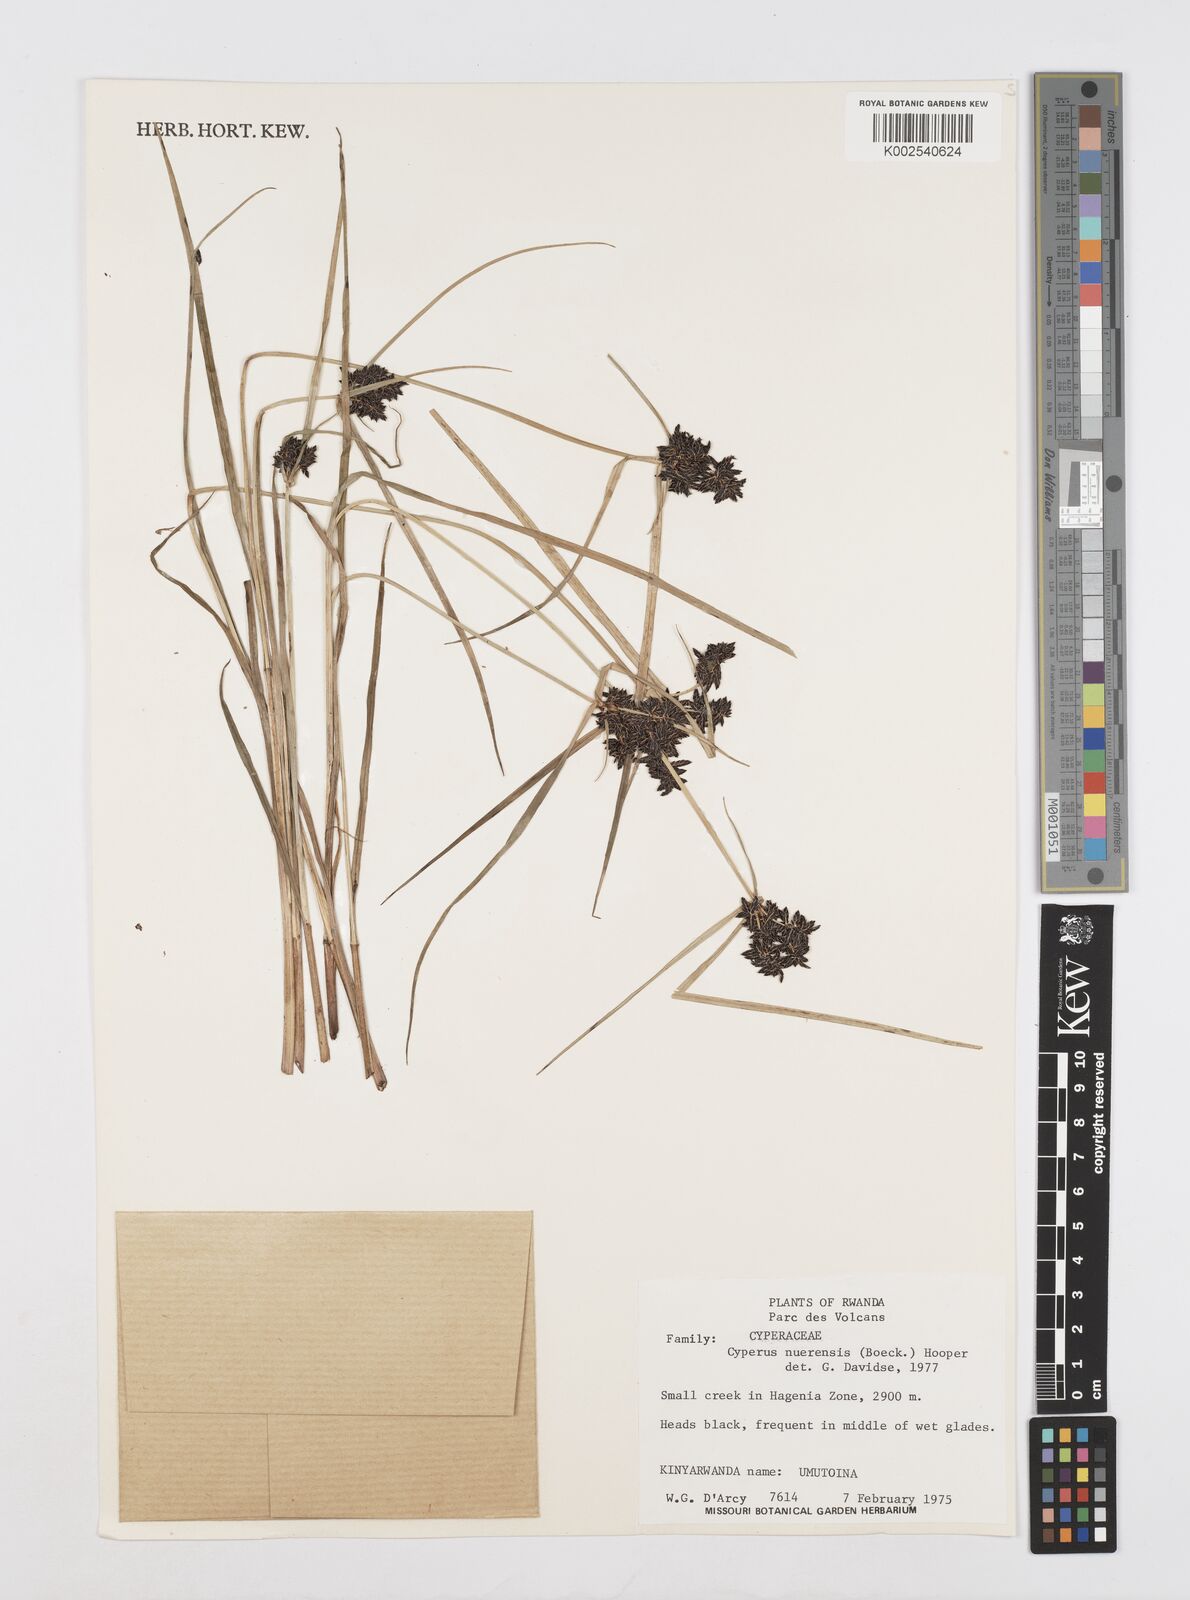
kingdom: Plantae
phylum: Tracheophyta
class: Liliopsida
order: Poales
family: Cyperaceae
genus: Cyperus
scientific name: Cyperus elegantulus
